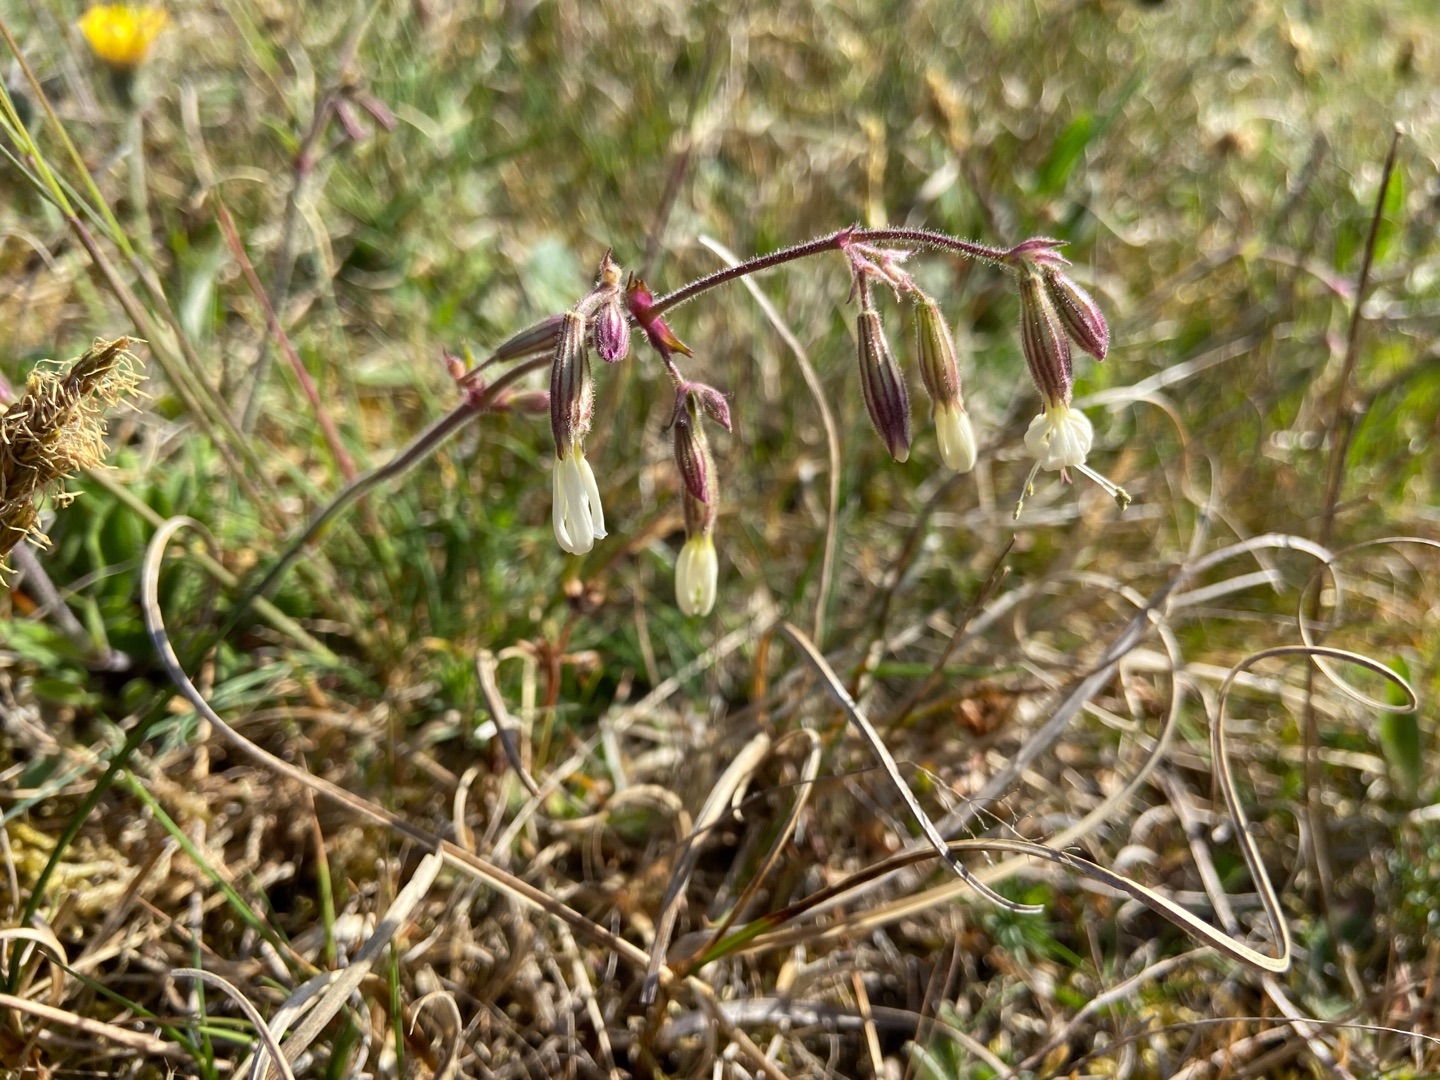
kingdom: Plantae
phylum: Tracheophyta
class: Magnoliopsida
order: Caryophyllales
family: Caryophyllaceae
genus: Silene
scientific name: Silene nutans
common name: Nikkende limurt
